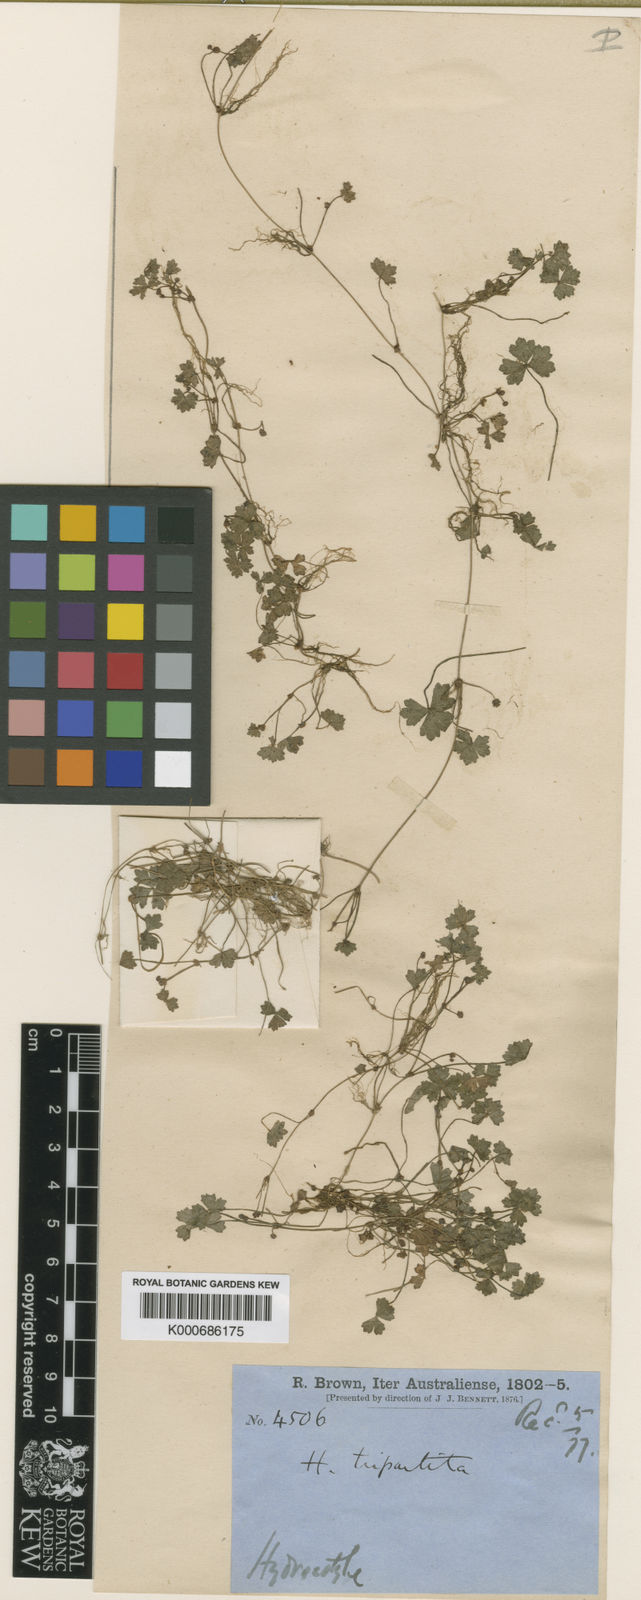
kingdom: Plantae
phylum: Tracheophyta
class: Magnoliopsida
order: Apiales
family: Araliaceae
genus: Hydrocotyle
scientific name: Hydrocotyle tripartita
